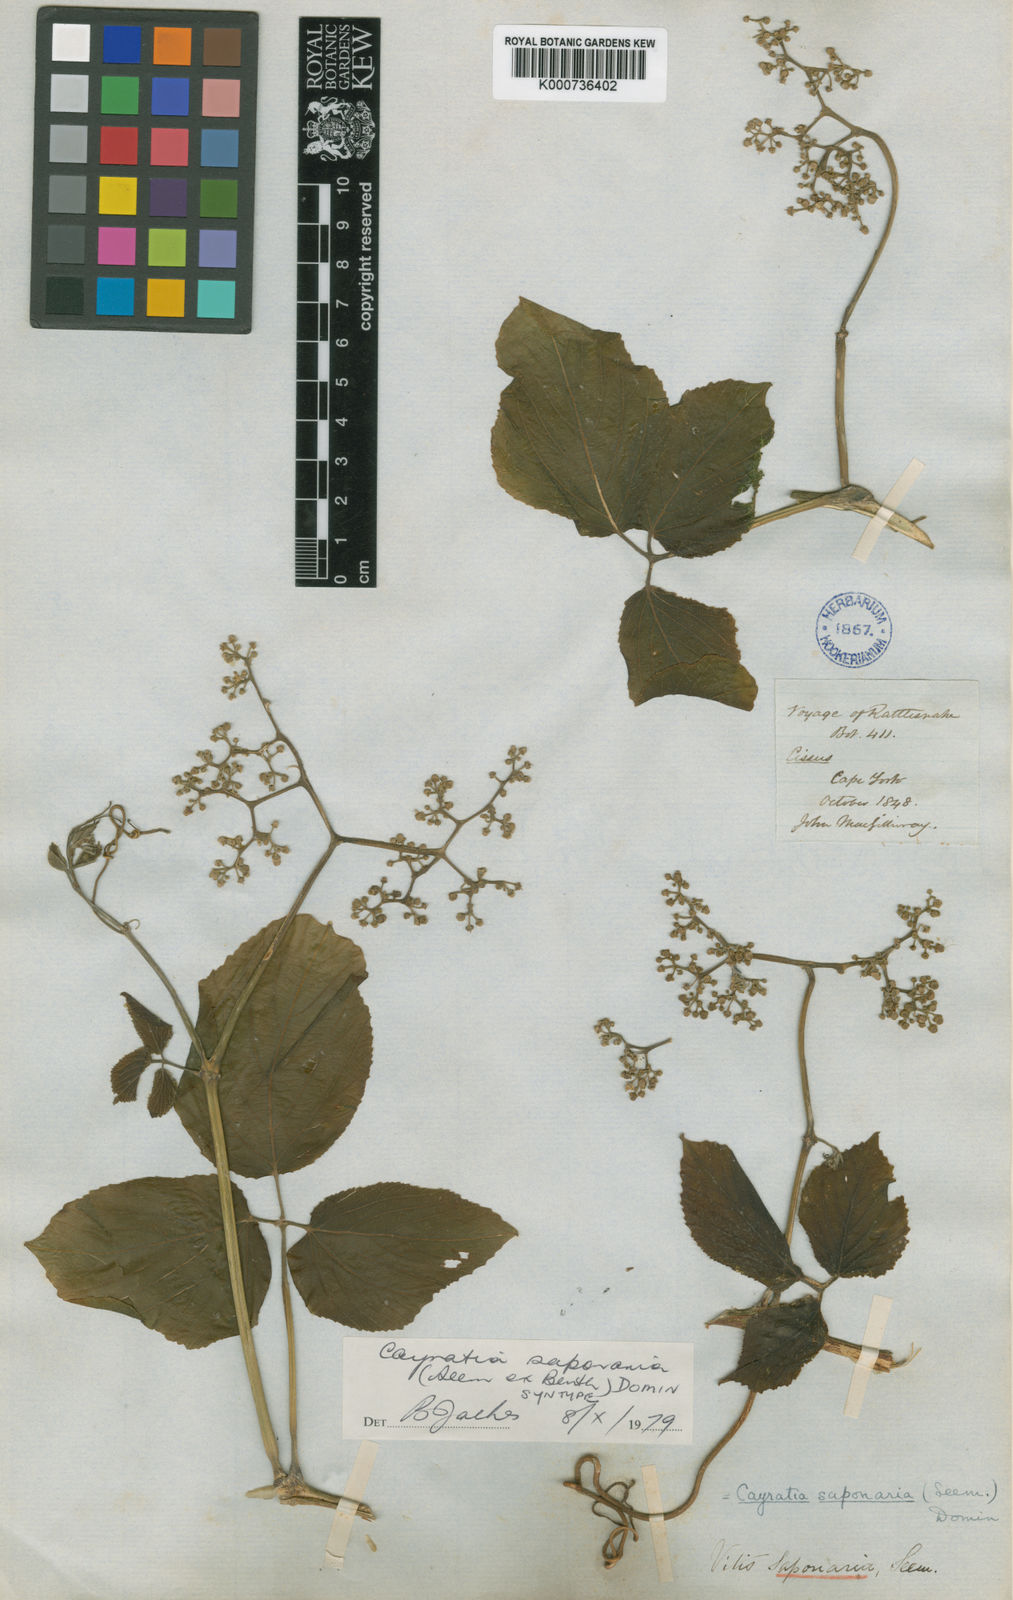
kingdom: Plantae
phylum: Tracheophyta
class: Magnoliopsida
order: Vitales
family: Vitaceae
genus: Cayratia
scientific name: Cayratia saponaria
